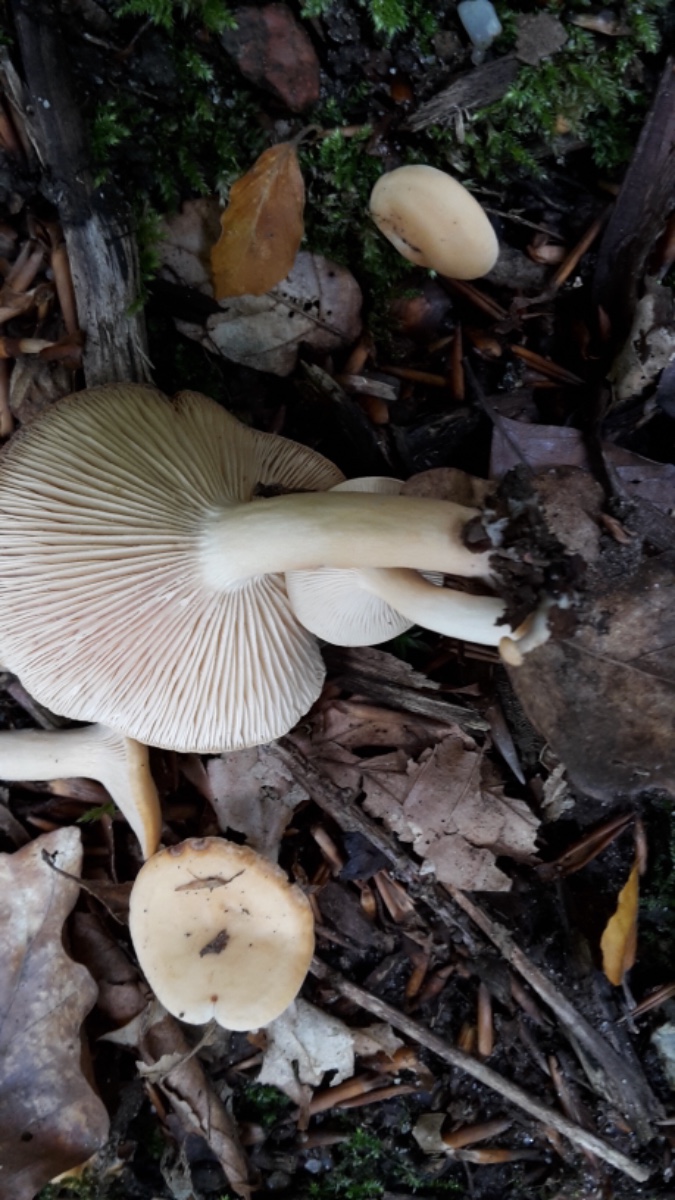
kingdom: Fungi
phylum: Basidiomycota
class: Agaricomycetes
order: Russulales
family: Russulaceae
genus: Lactarius
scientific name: Lactarius subdulcis
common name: sødlig mælkehat
